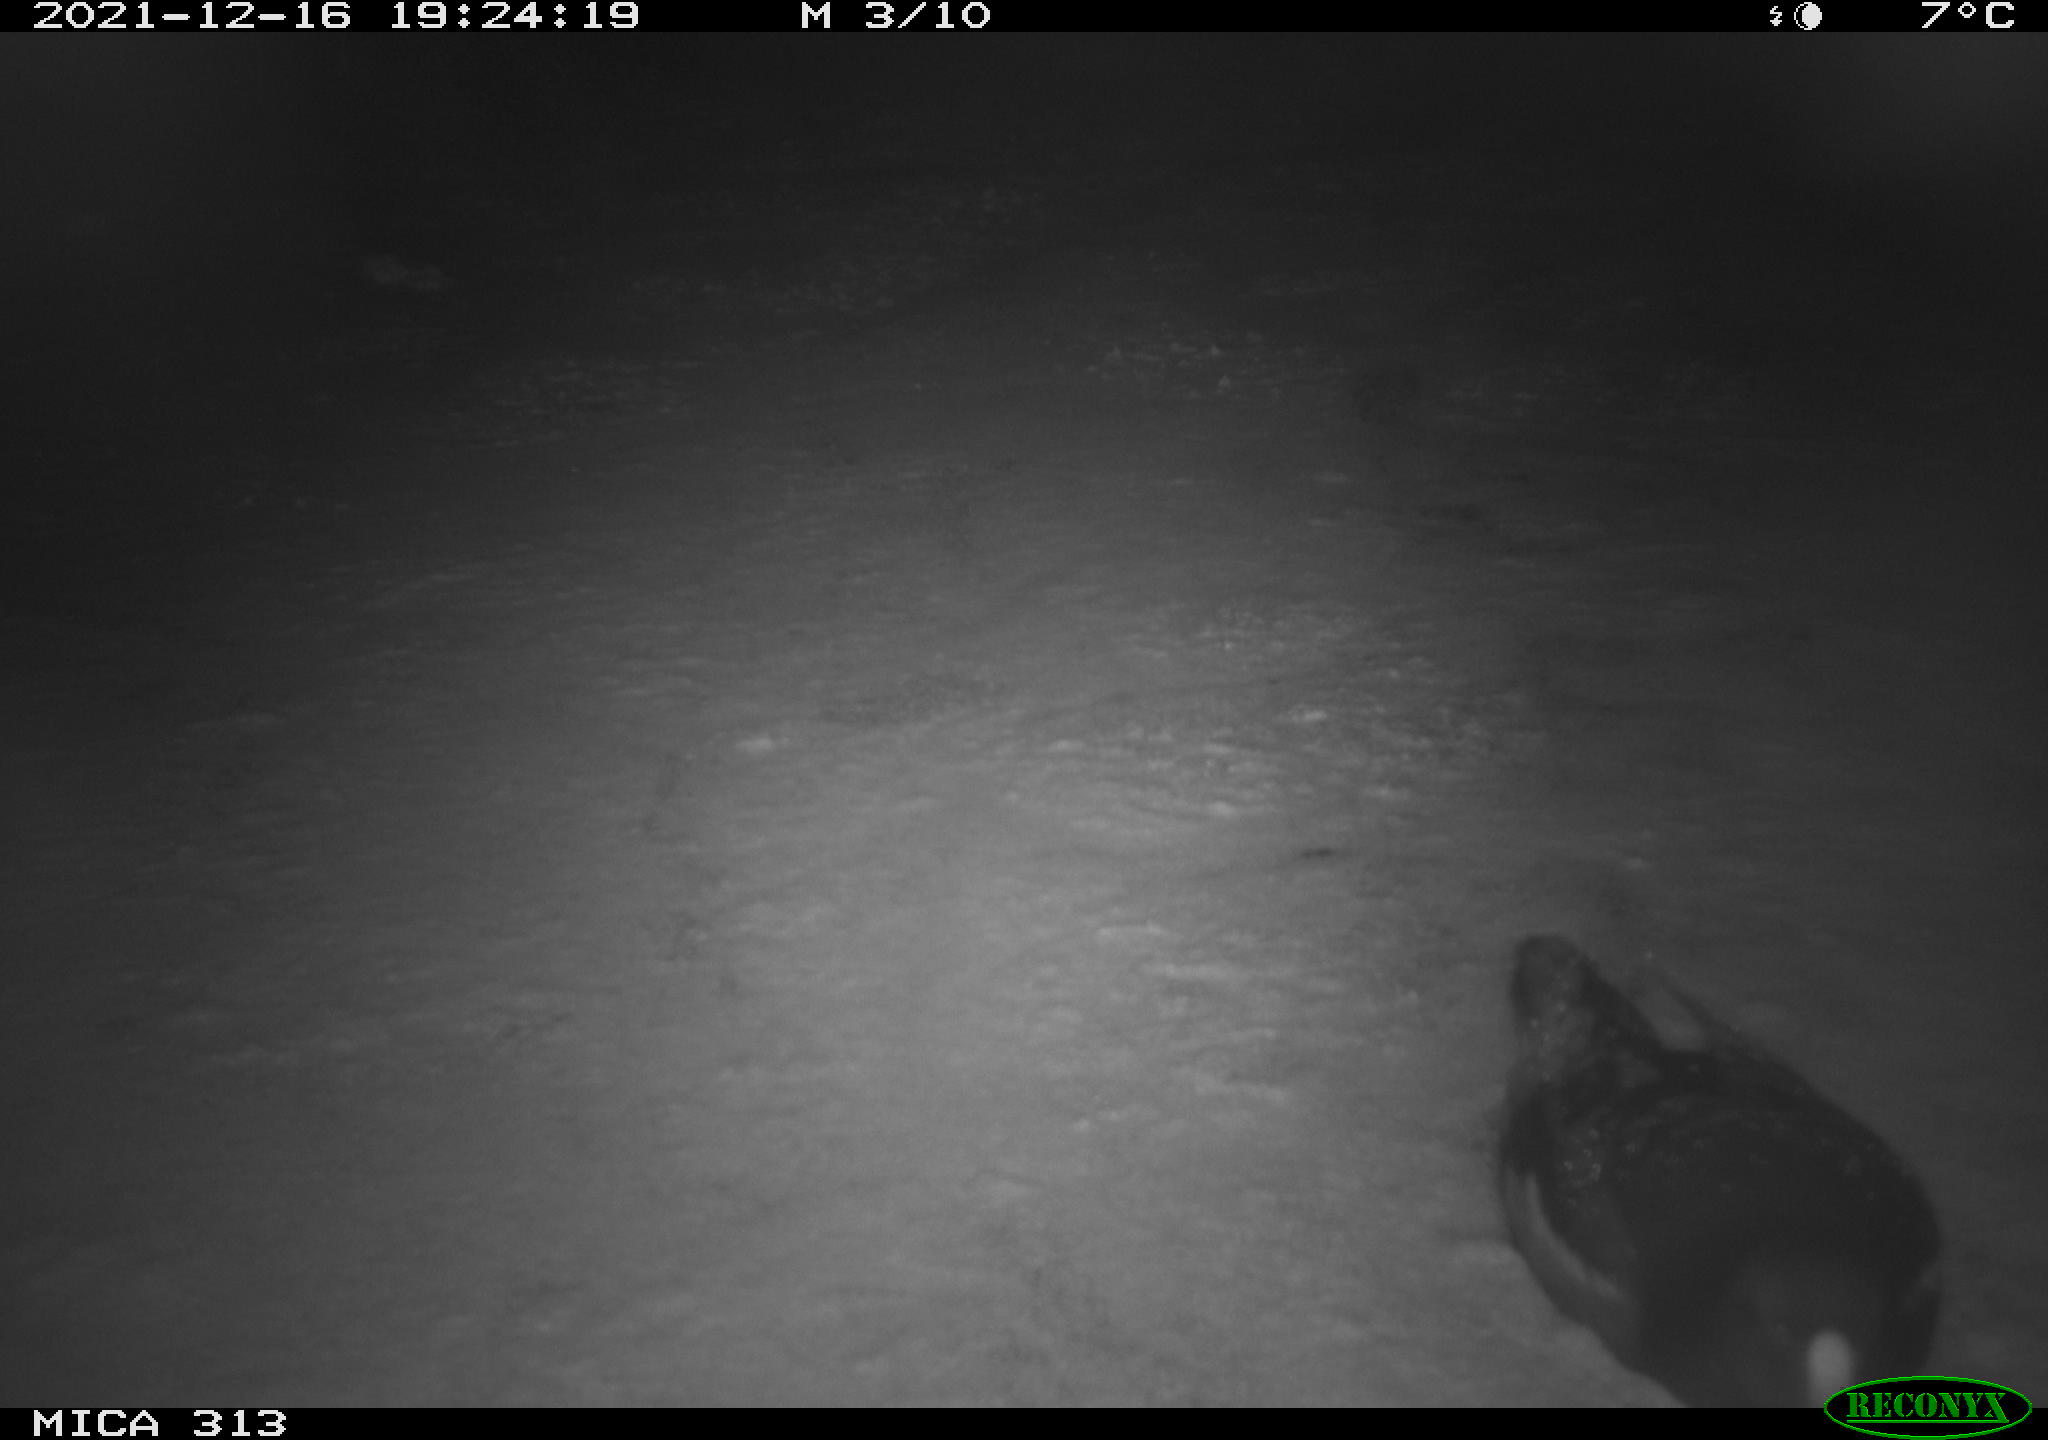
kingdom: Animalia
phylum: Chordata
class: Aves
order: Gruiformes
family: Rallidae
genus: Fulica
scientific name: Fulica atra
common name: Eurasian coot
